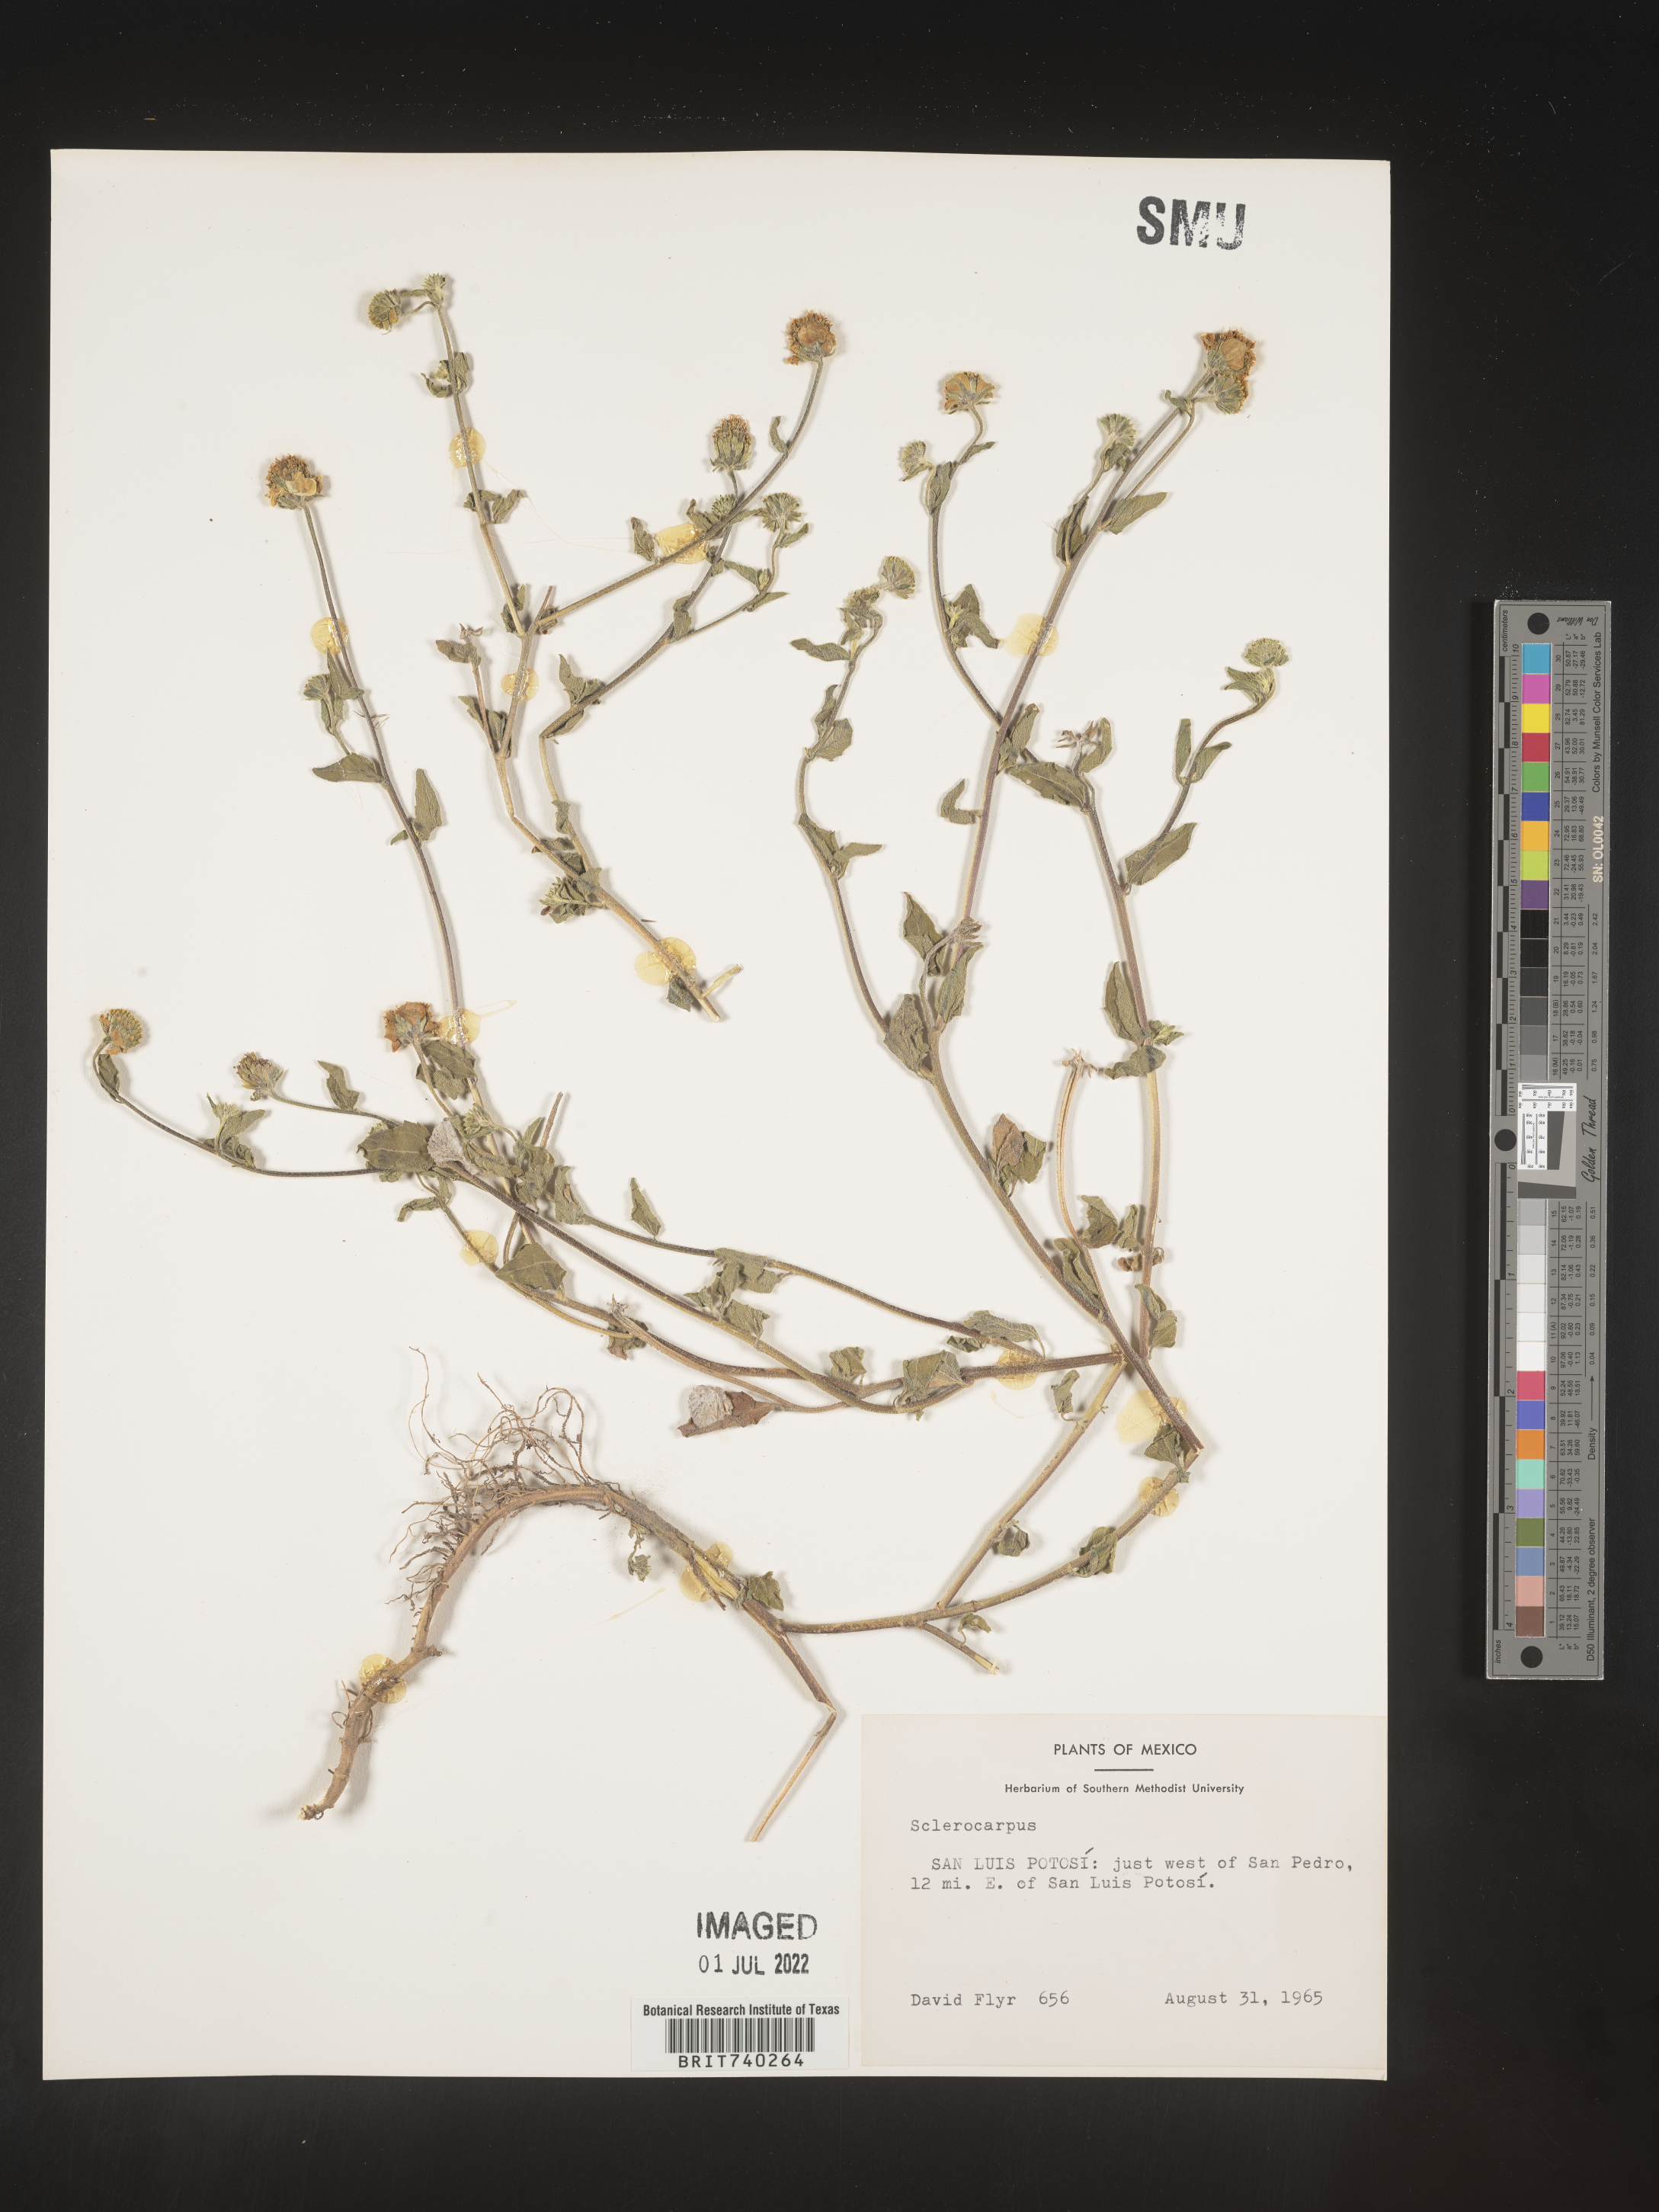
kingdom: Plantae
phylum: Tracheophyta
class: Magnoliopsida
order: Asterales
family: Asteraceae
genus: Sclerocarpus
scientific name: Sclerocarpus
